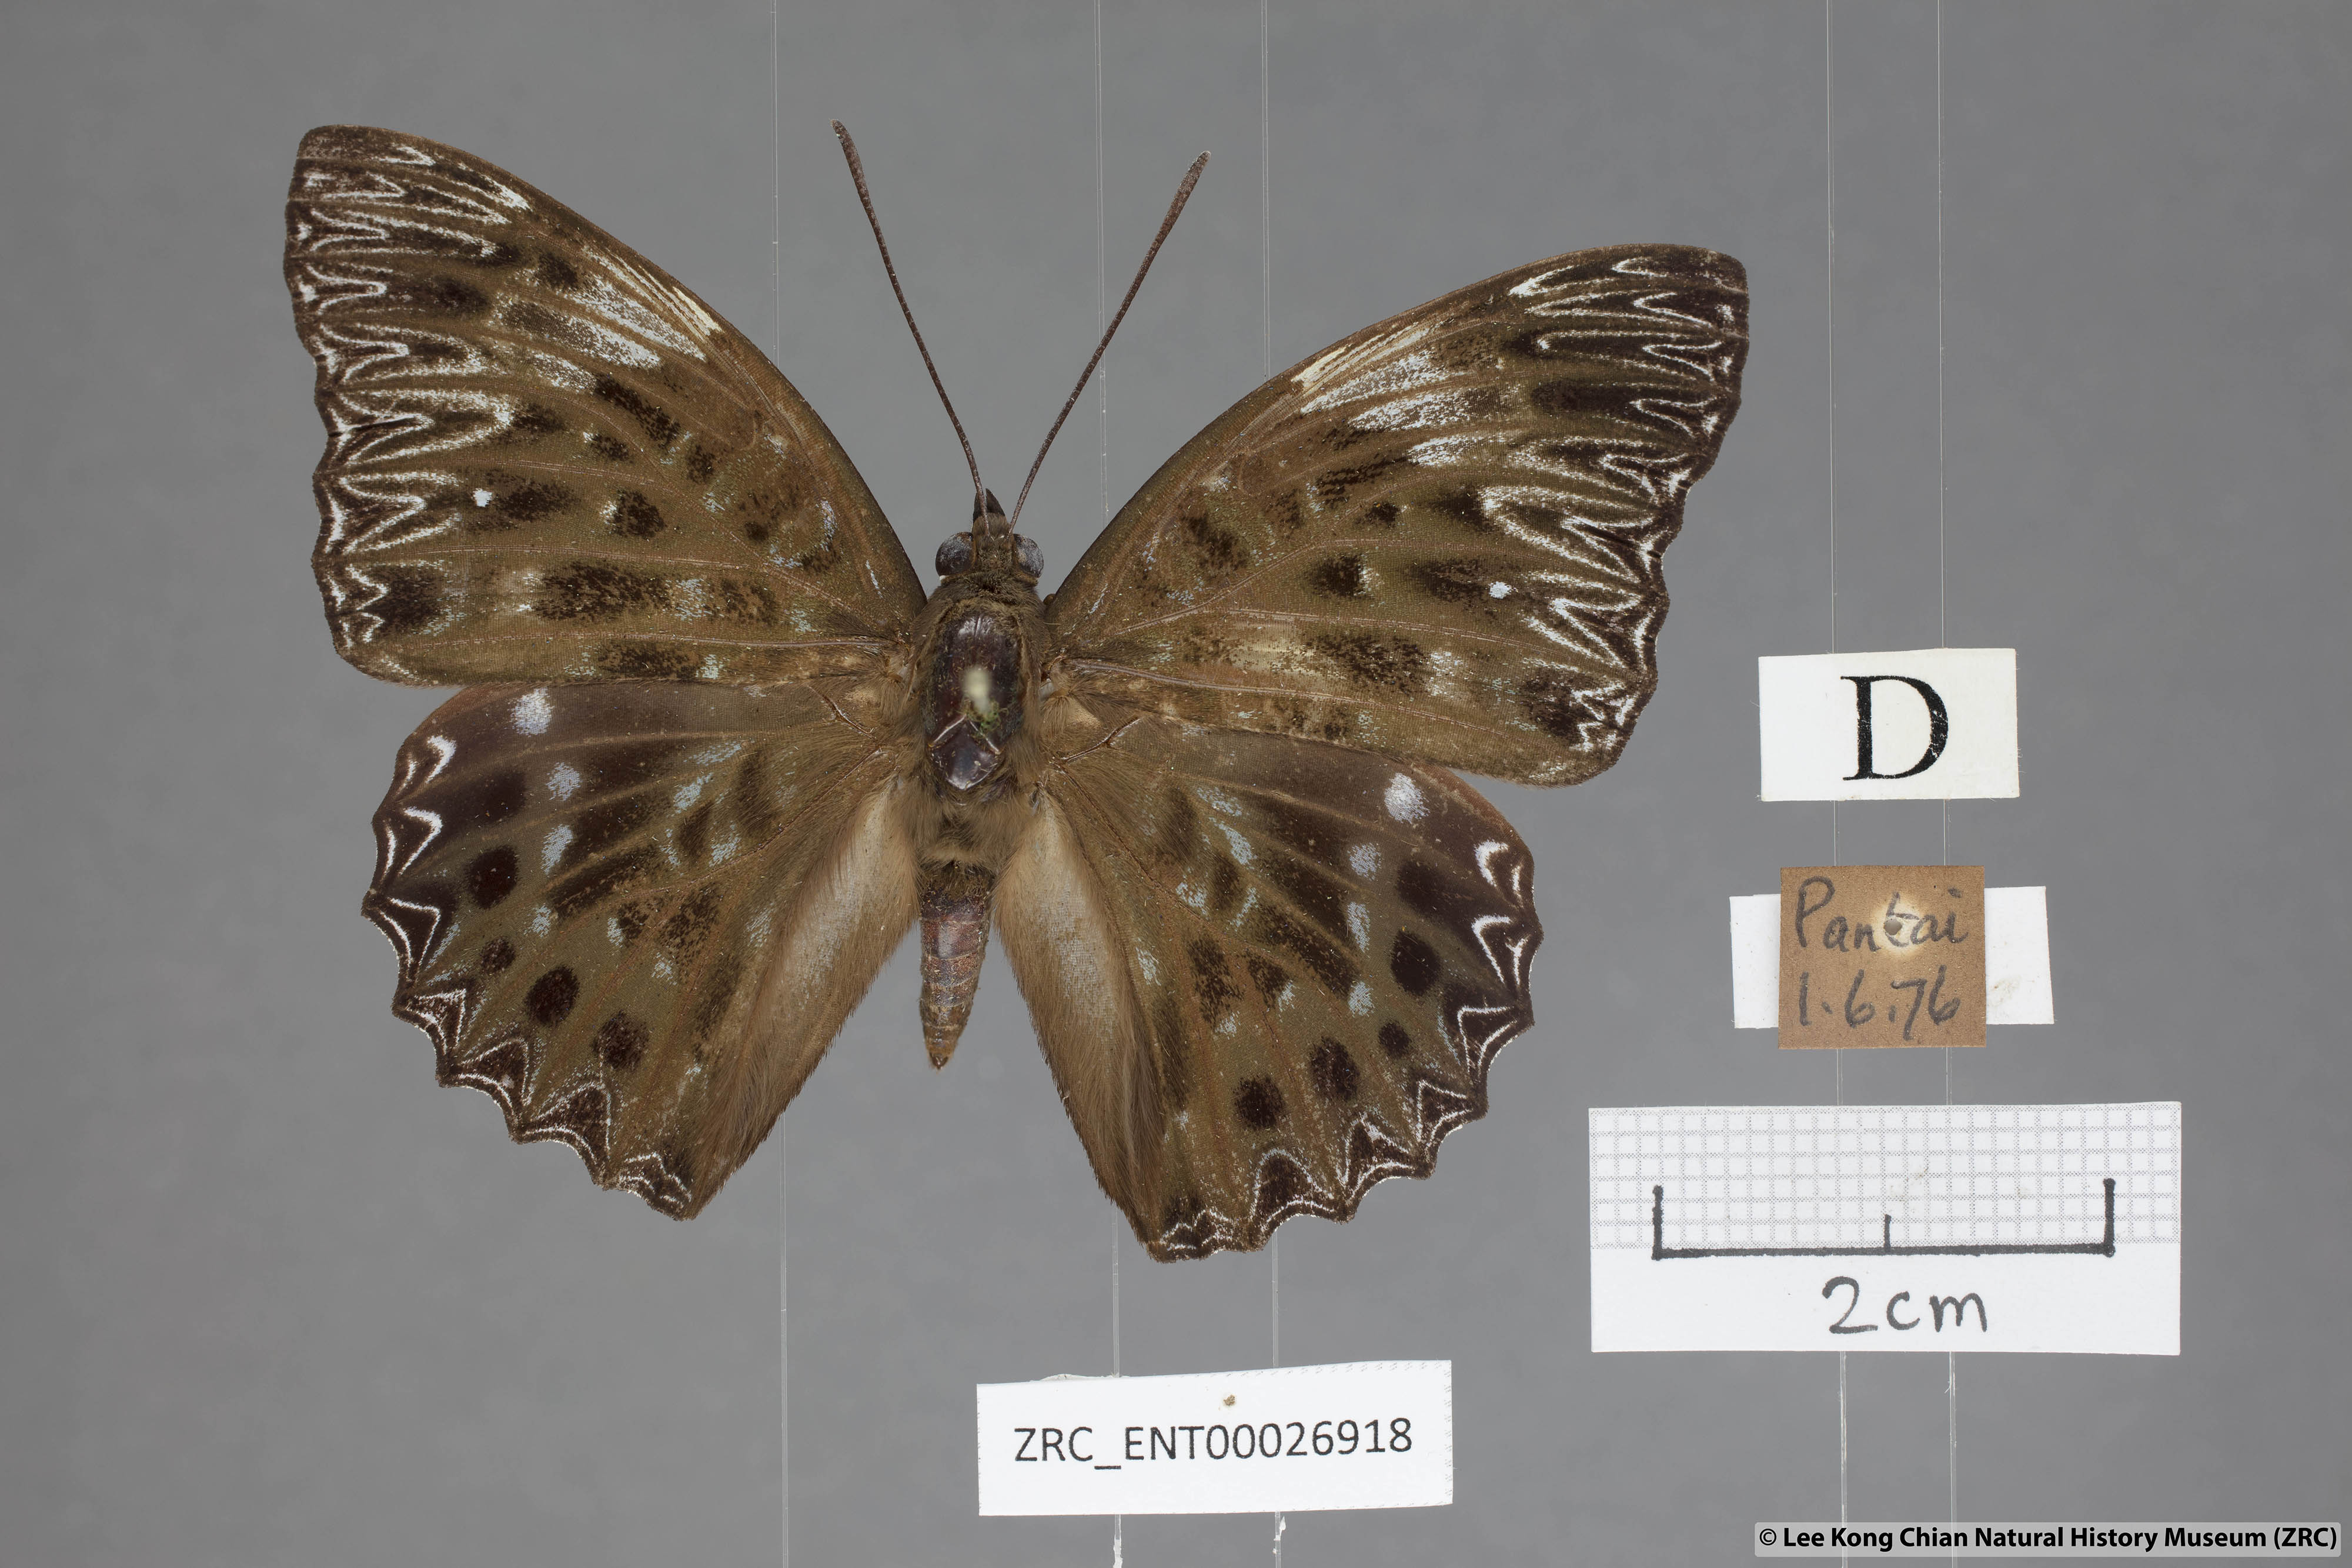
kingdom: Animalia
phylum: Arthropoda
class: Insecta
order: Lepidoptera
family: Nymphalidae
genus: Dichorragia
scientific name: Dichorragia nesimachus
